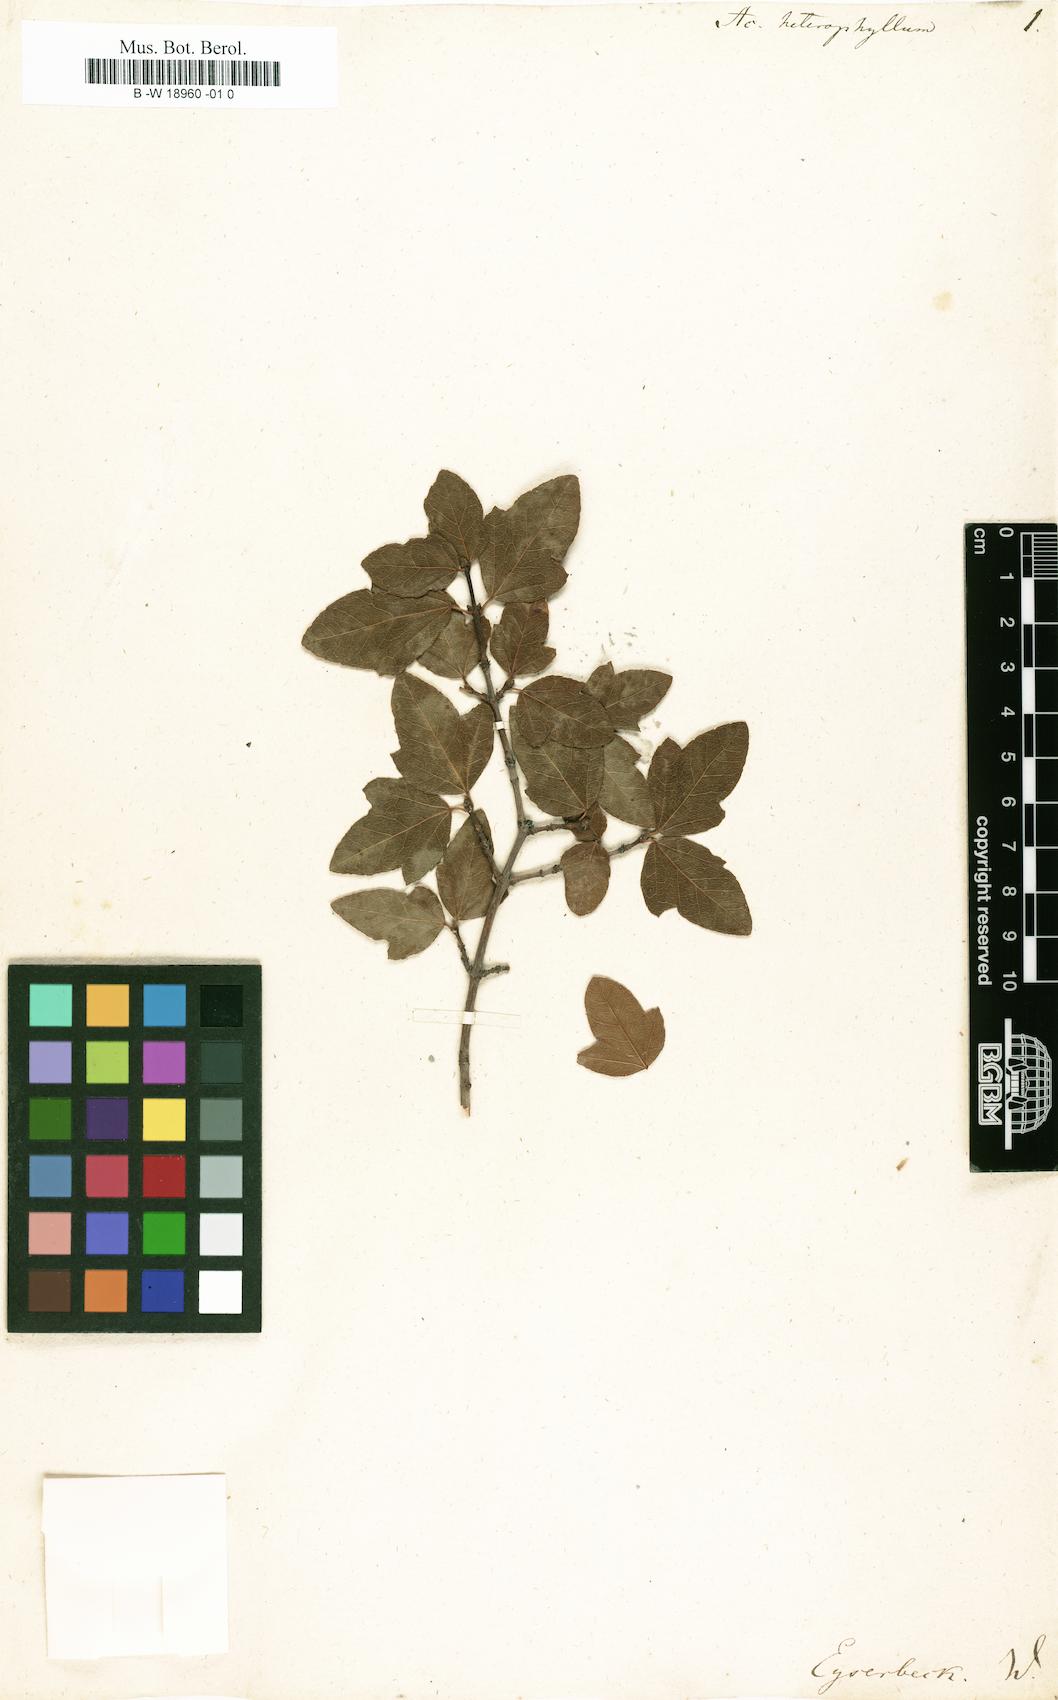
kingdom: Plantae
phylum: Tracheophyta
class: Magnoliopsida
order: Sapindales
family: Sapindaceae
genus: Acer
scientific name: Acer sempervirens
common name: Cretan maple
